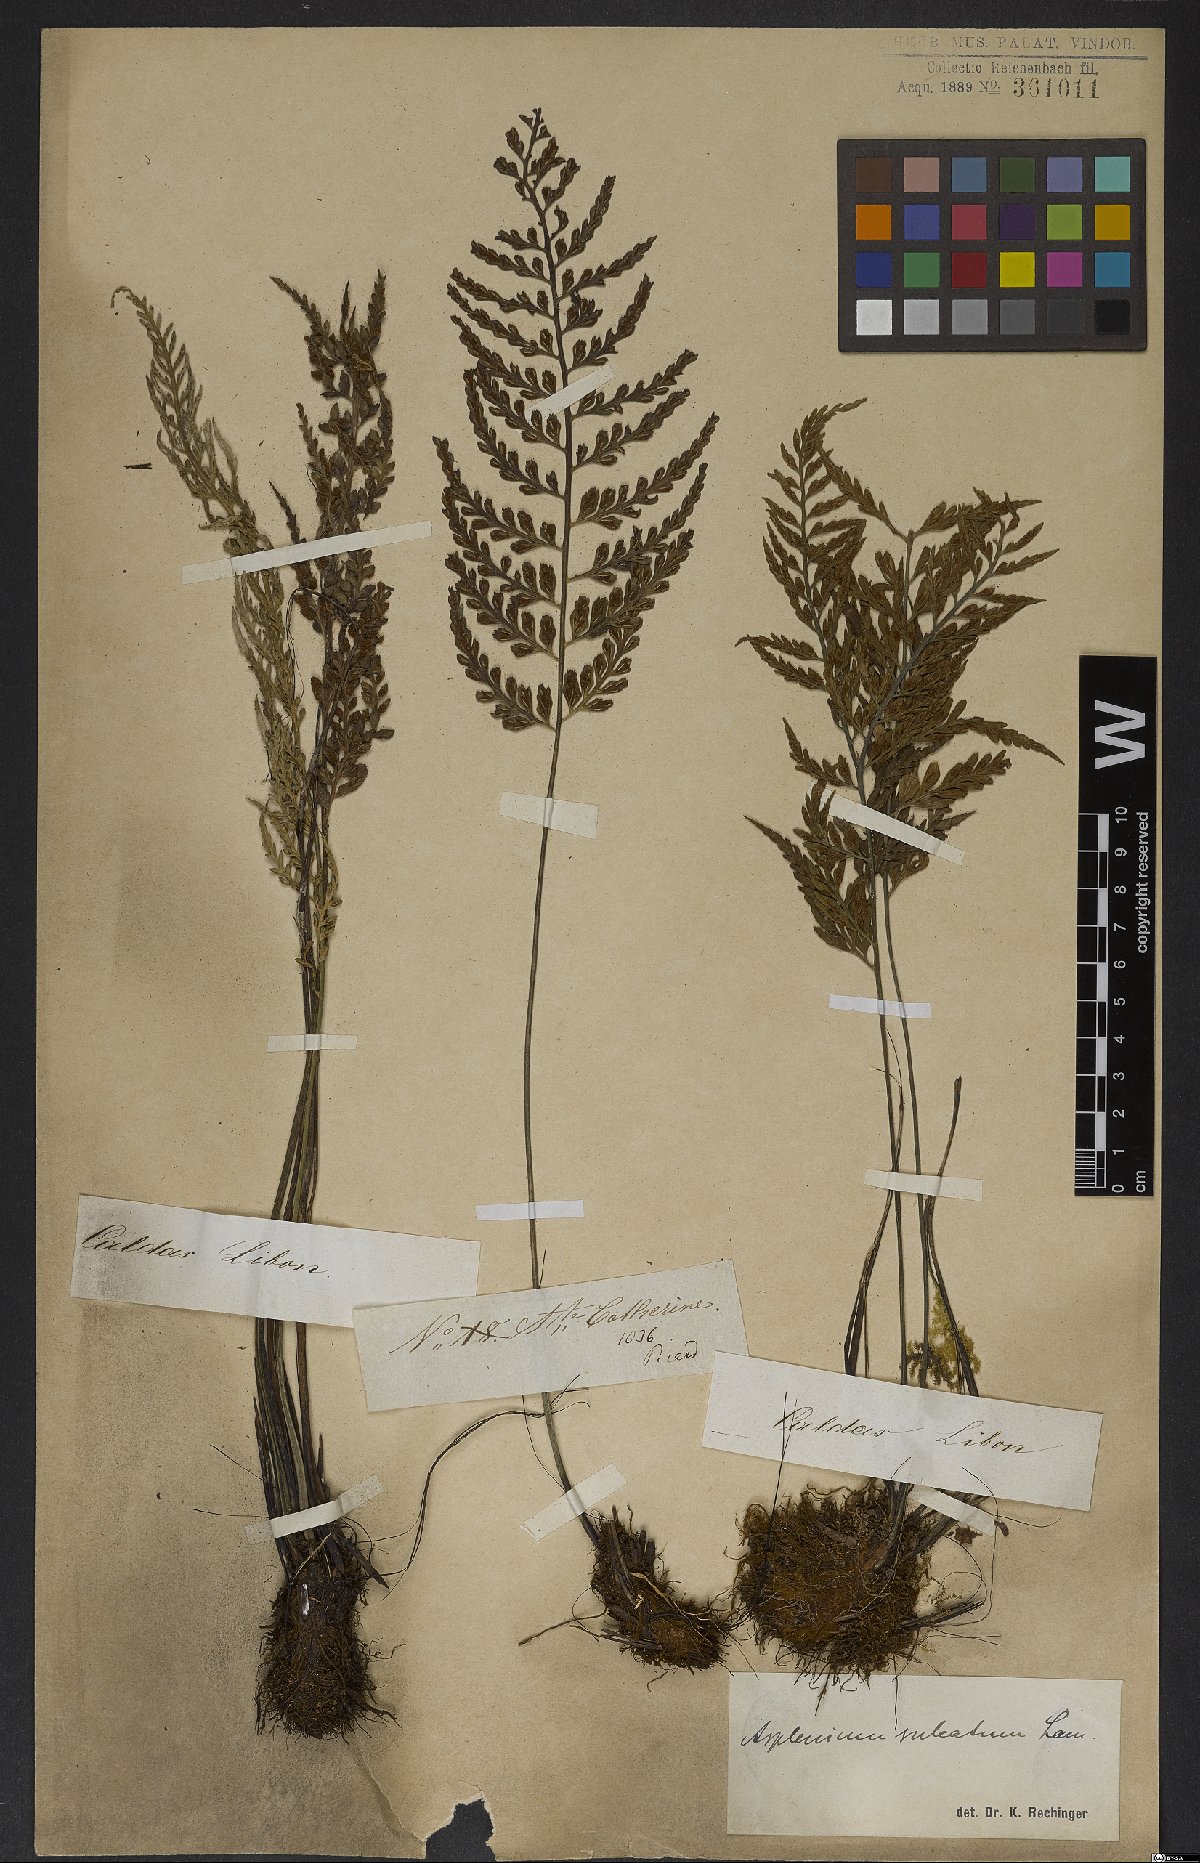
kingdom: Plantae
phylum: Tracheophyta
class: Polypodiopsida
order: Polypodiales
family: Aspleniaceae
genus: Asplenium
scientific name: Asplenium sulcatum
